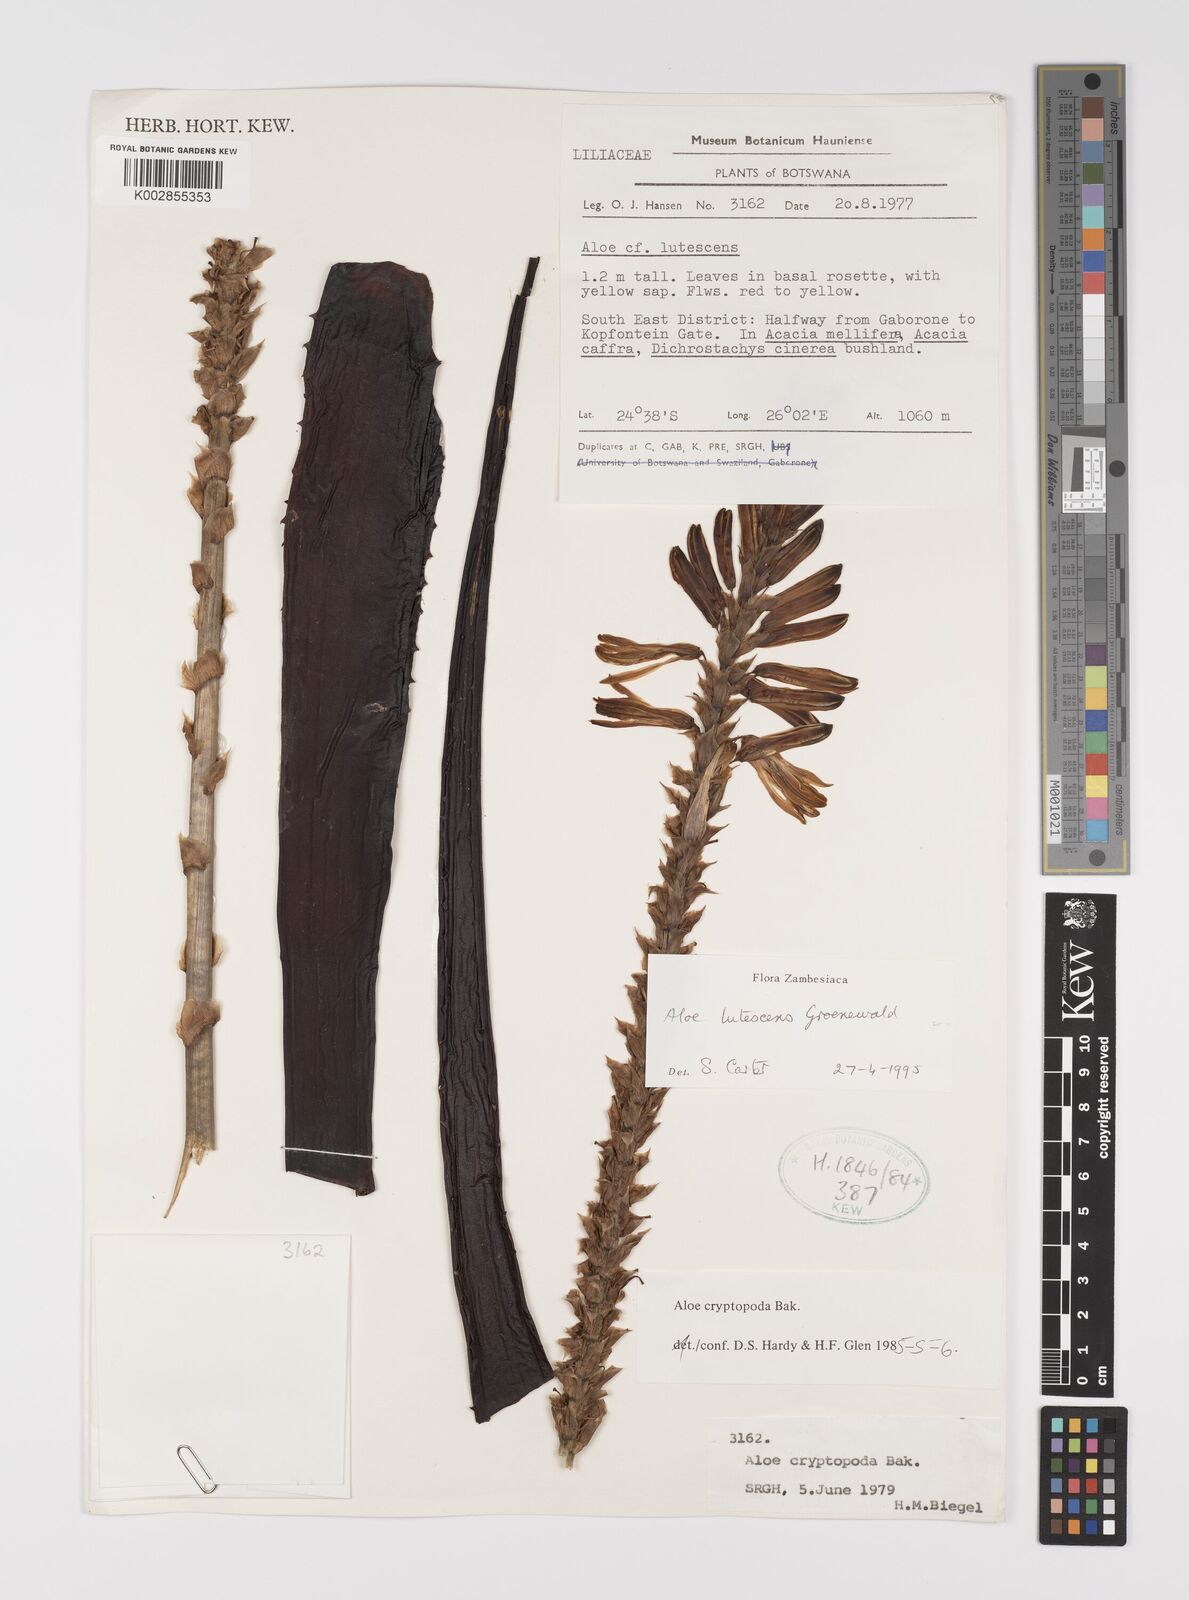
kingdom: Plantae
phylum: Tracheophyta
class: Liliopsida
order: Asparagales
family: Asphodelaceae
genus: Aloe
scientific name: Aloe lutescens
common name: Malapati aloe
